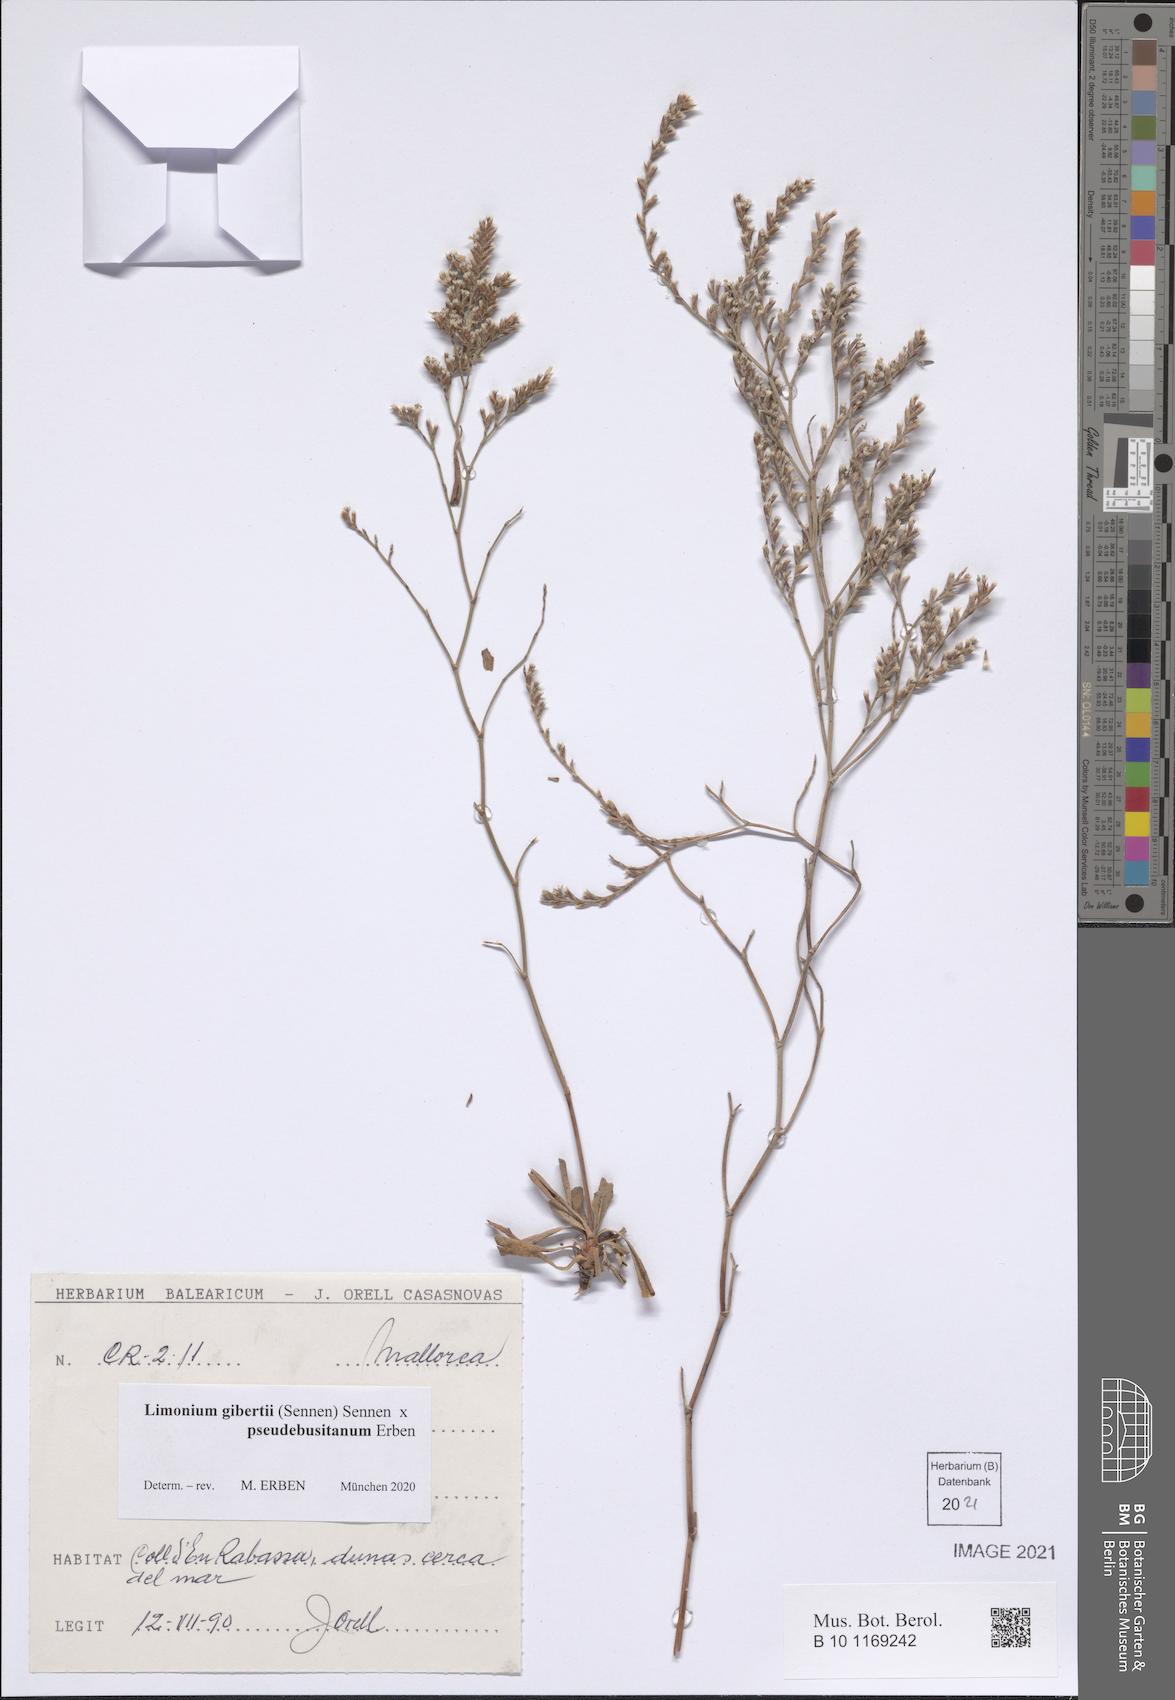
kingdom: Plantae
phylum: Tracheophyta
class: Magnoliopsida
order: Caryophyllales
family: Plumbaginaceae
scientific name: Plumbaginaceae
